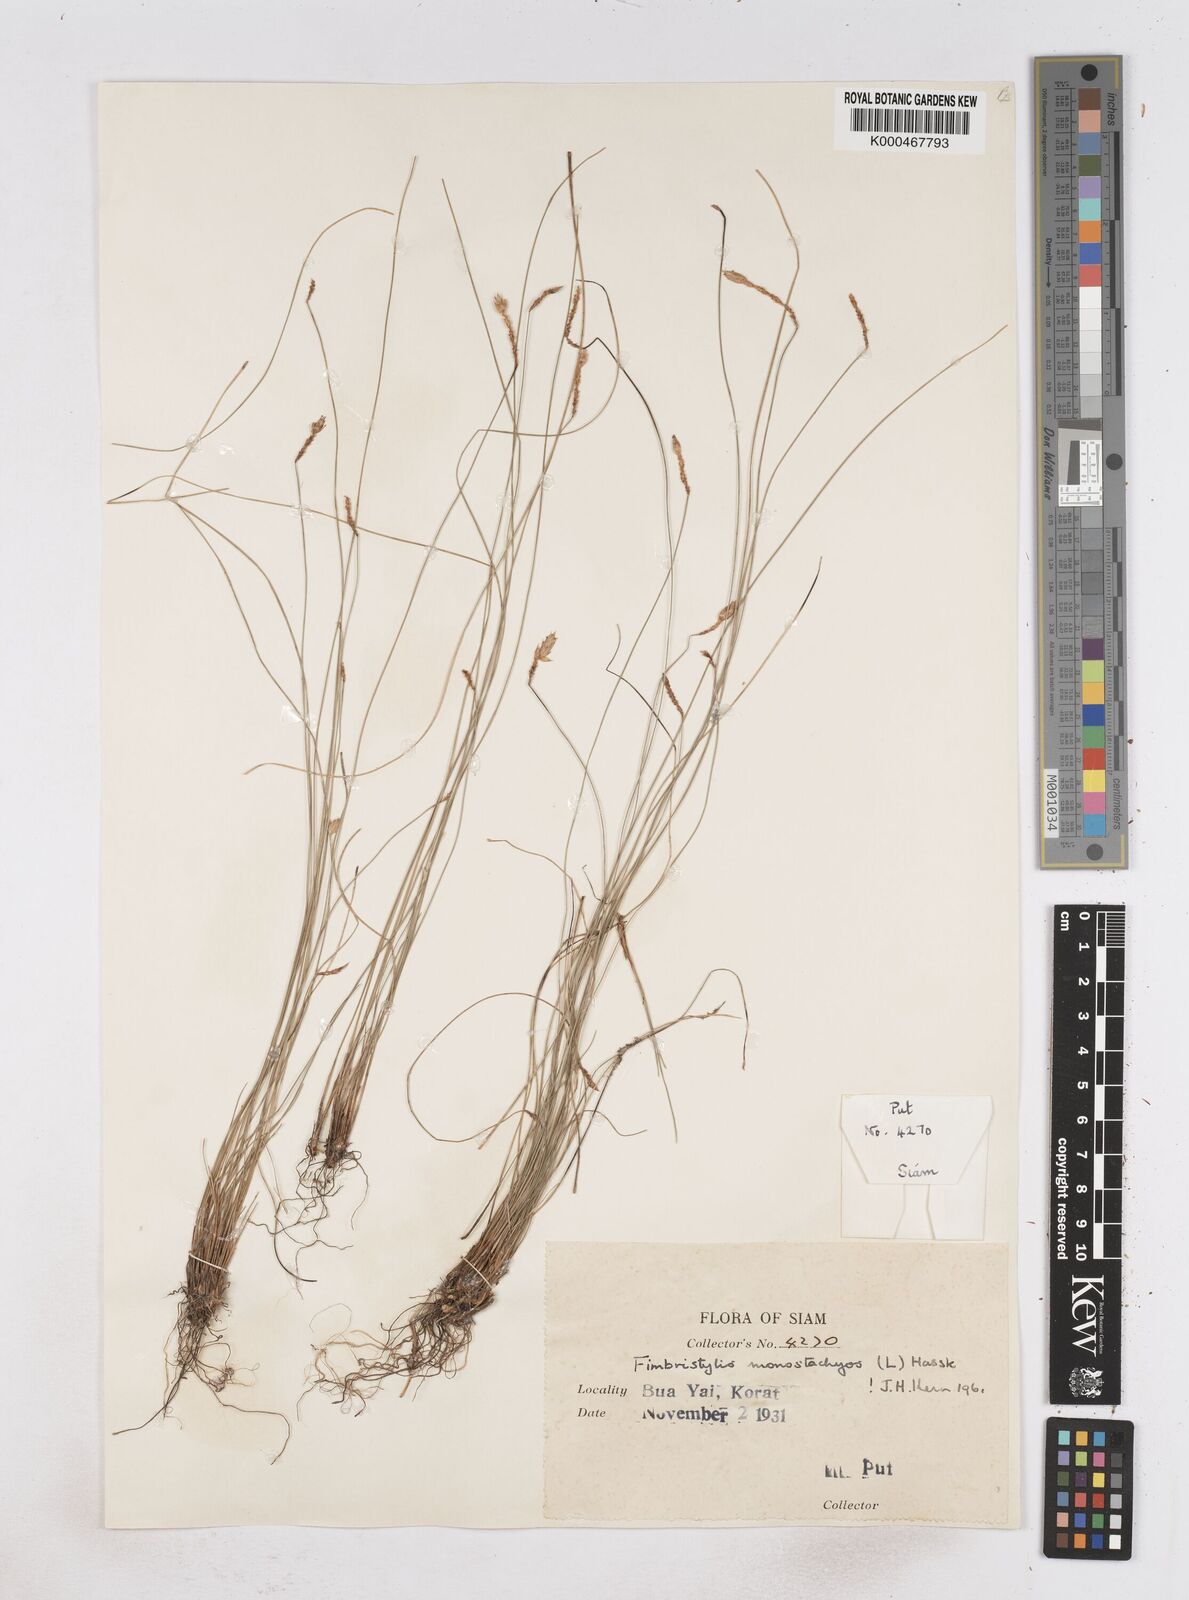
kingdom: Plantae
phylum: Tracheophyta
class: Liliopsida
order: Poales
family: Cyperaceae
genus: Abildgaardia
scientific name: Abildgaardia ovata
